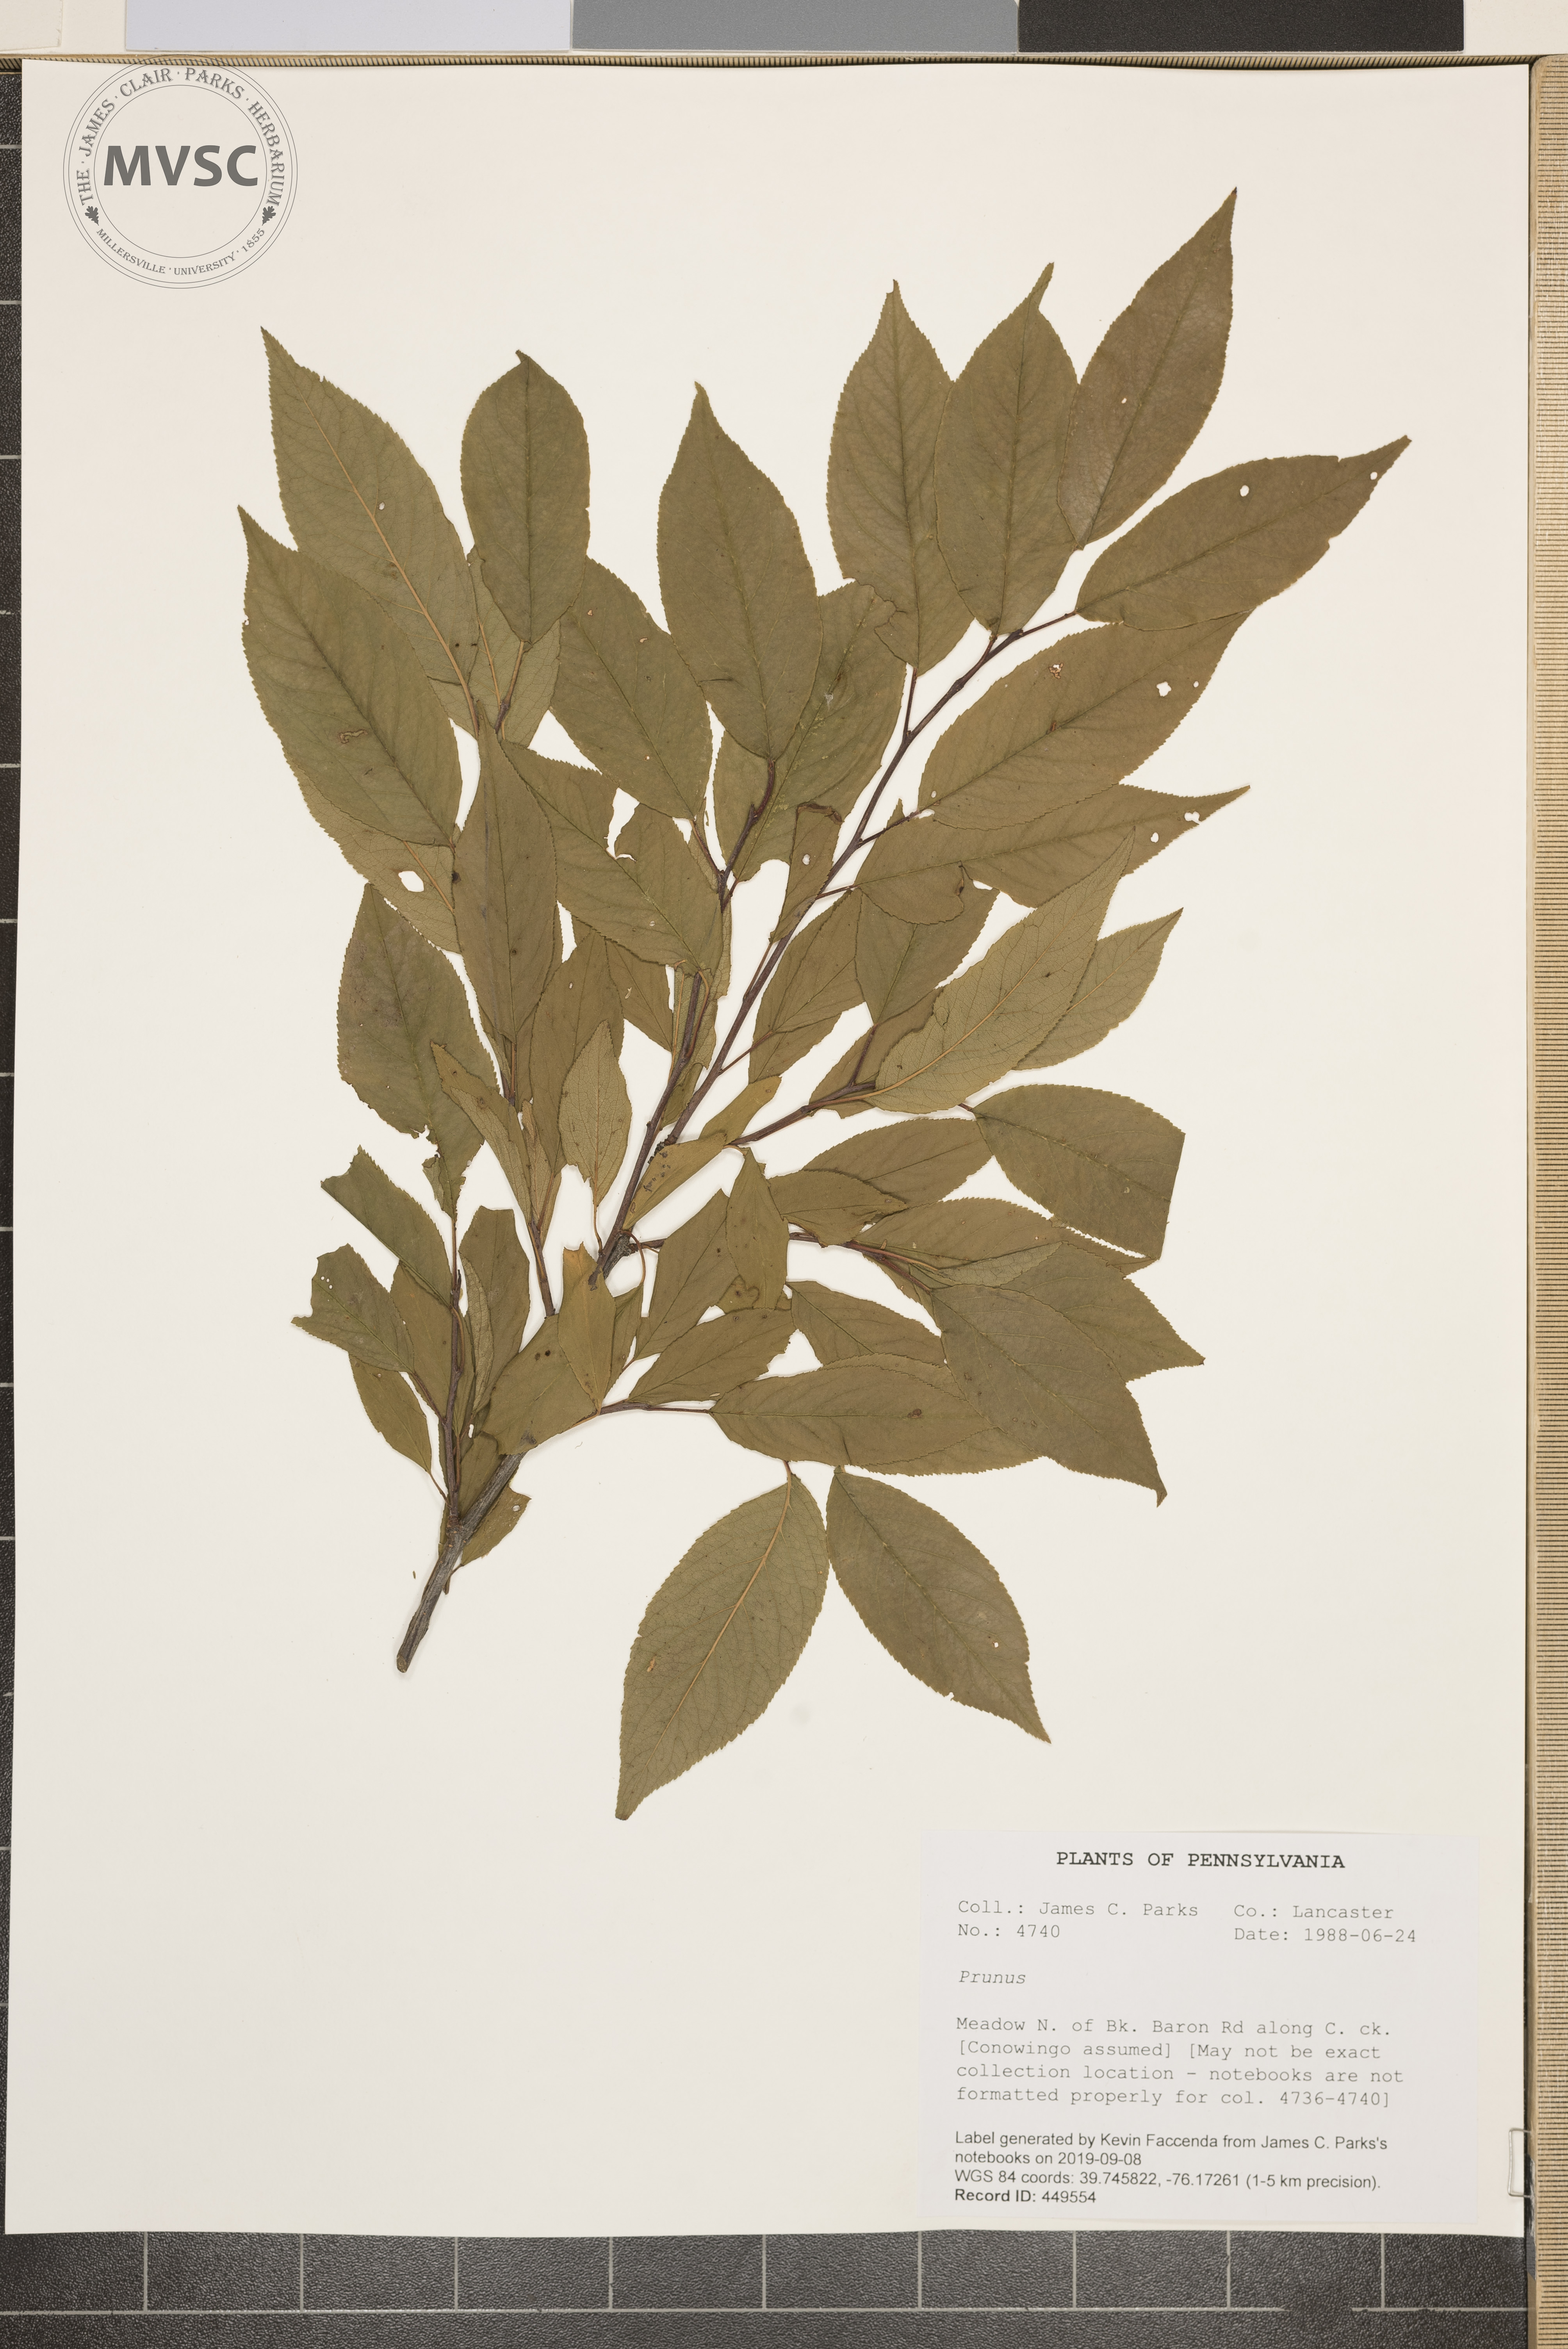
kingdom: Plantae
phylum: Tracheophyta
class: Magnoliopsida
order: Rosales
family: Rosaceae
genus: Prunus
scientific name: Prunus
